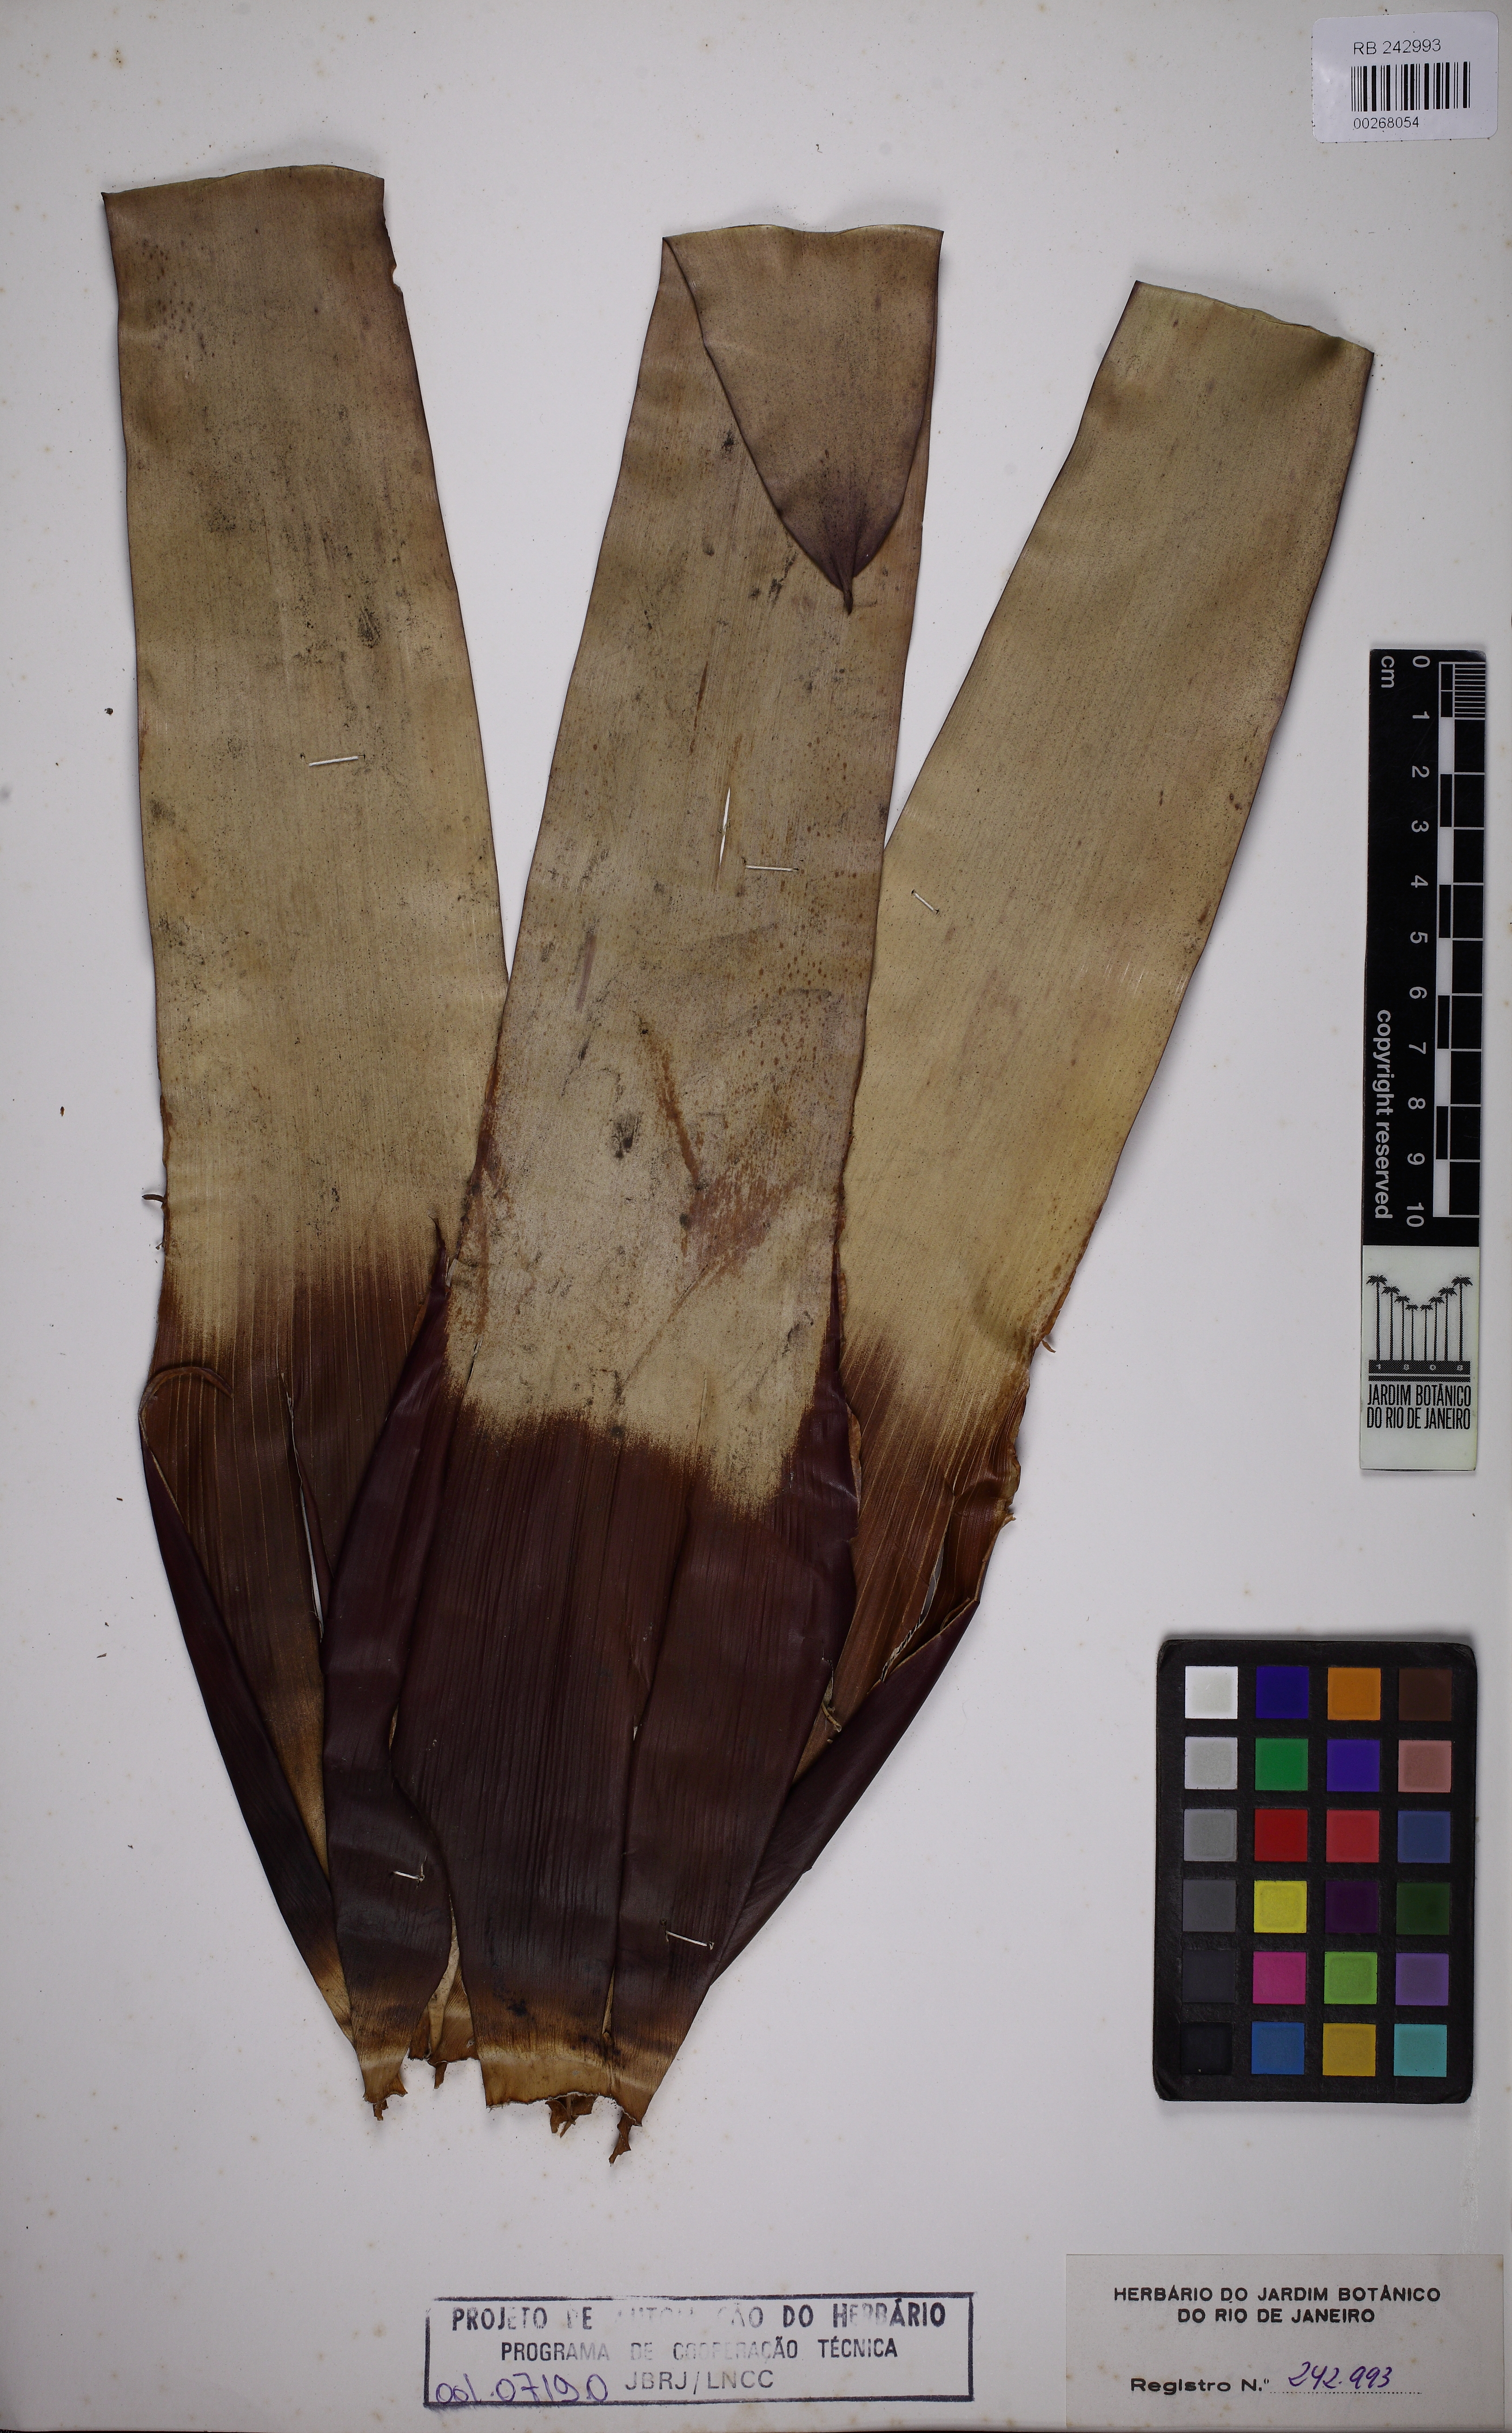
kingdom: Plantae
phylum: Tracheophyta
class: Liliopsida
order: Poales
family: Bromeliaceae
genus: Vriesea
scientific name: Vriesea crassa
